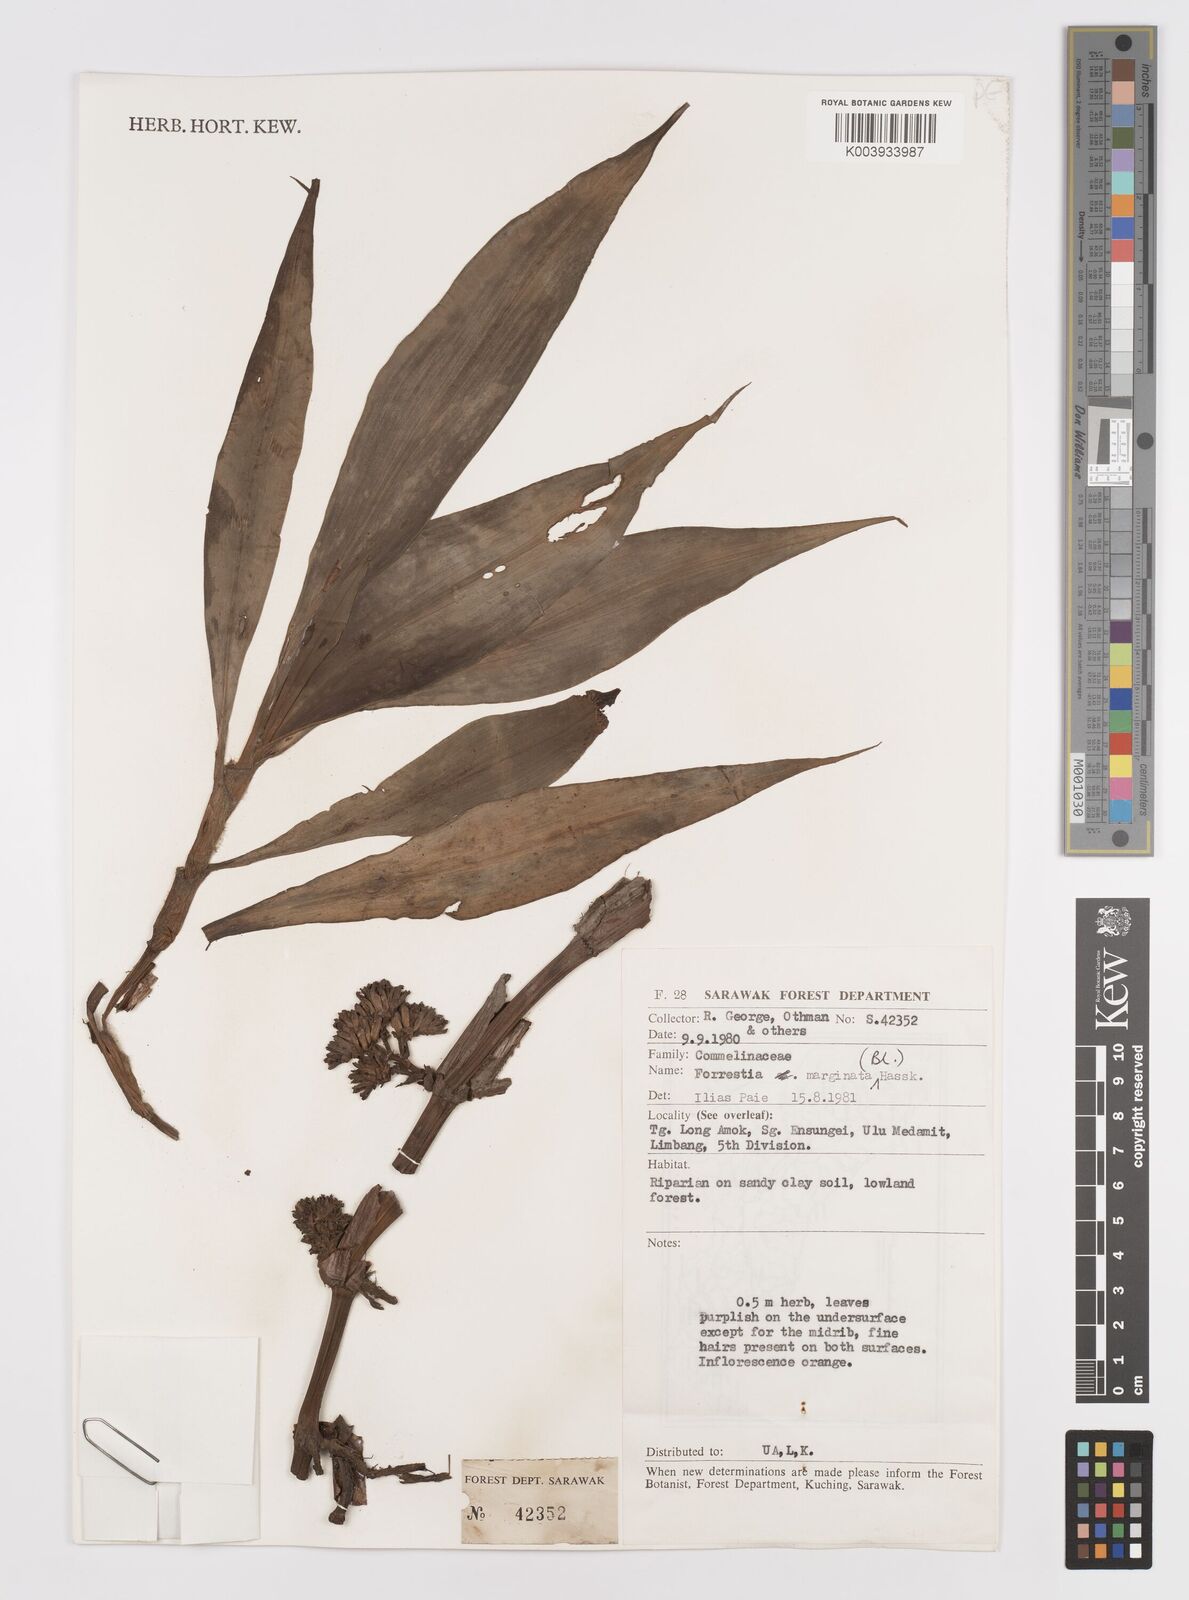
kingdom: Plantae
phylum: Tracheophyta
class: Liliopsida
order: Commelinales
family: Commelinaceae
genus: Amischotolype
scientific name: Amischotolype marginata
